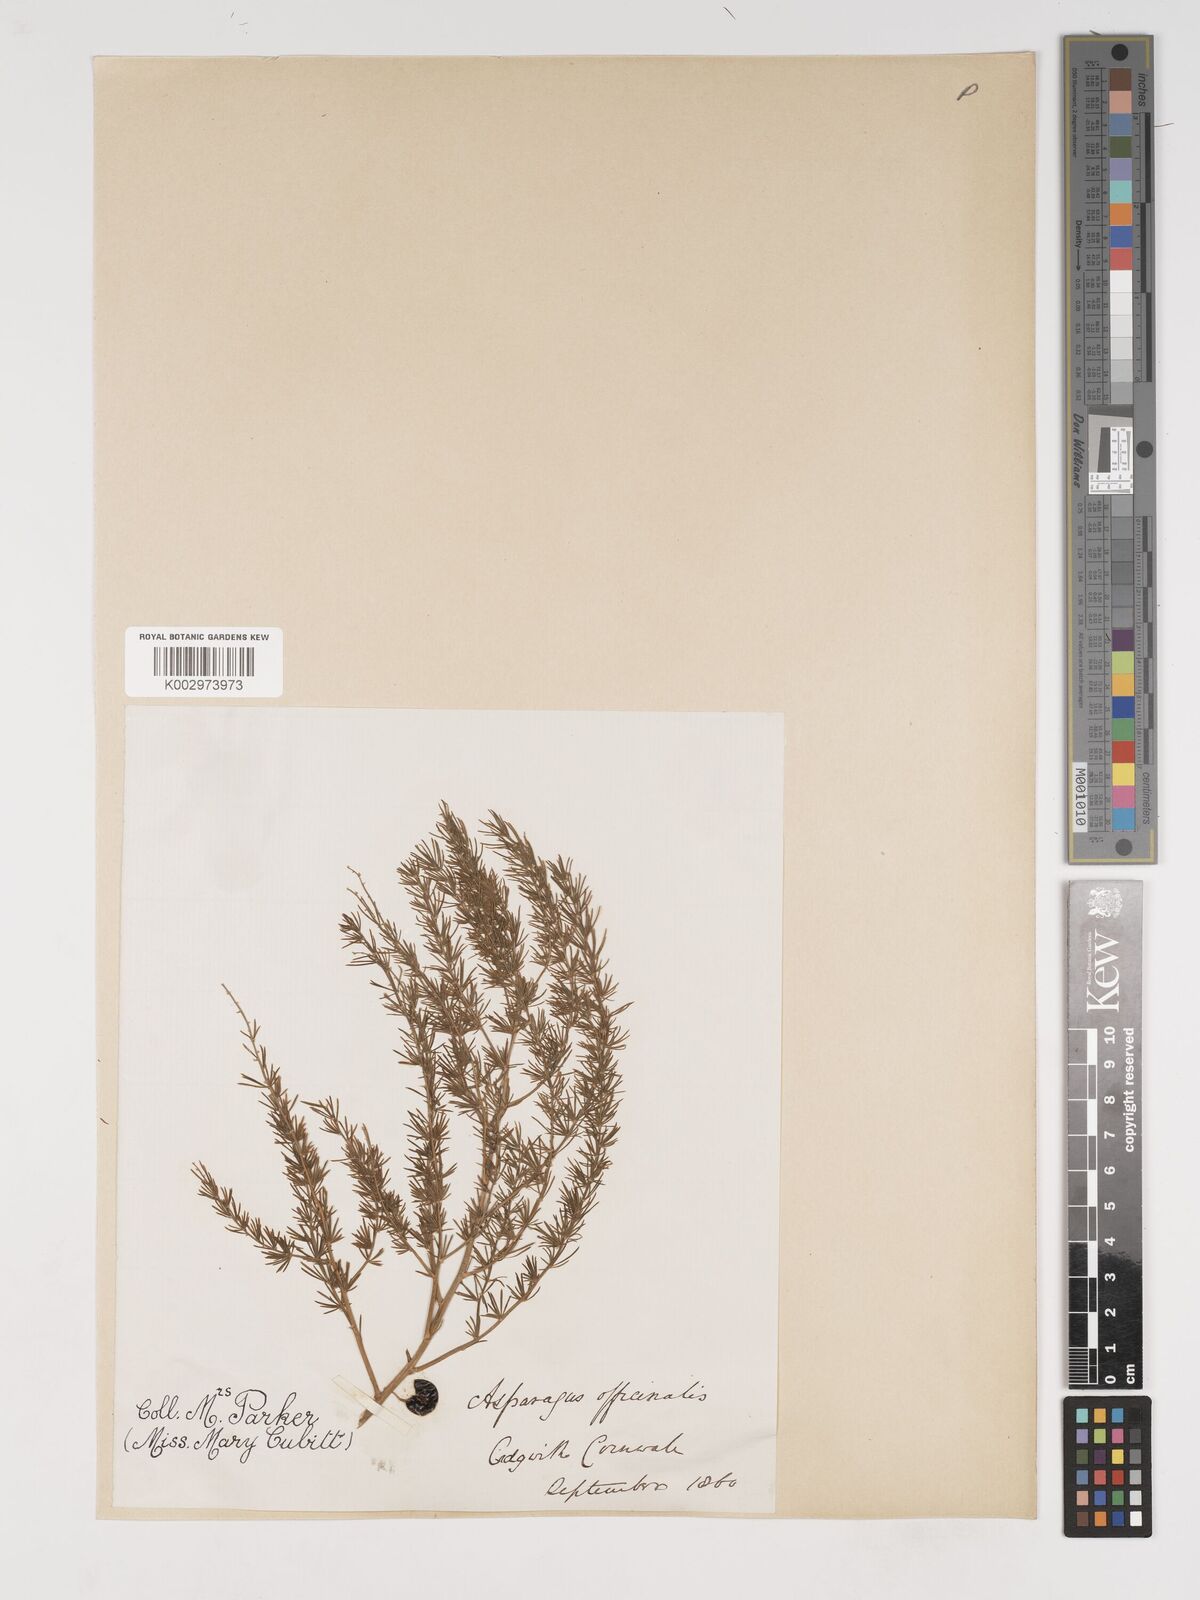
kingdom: Plantae
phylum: Tracheophyta
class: Liliopsida
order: Asparagales
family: Asparagaceae
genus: Asparagus
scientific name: Asparagus maritimus
